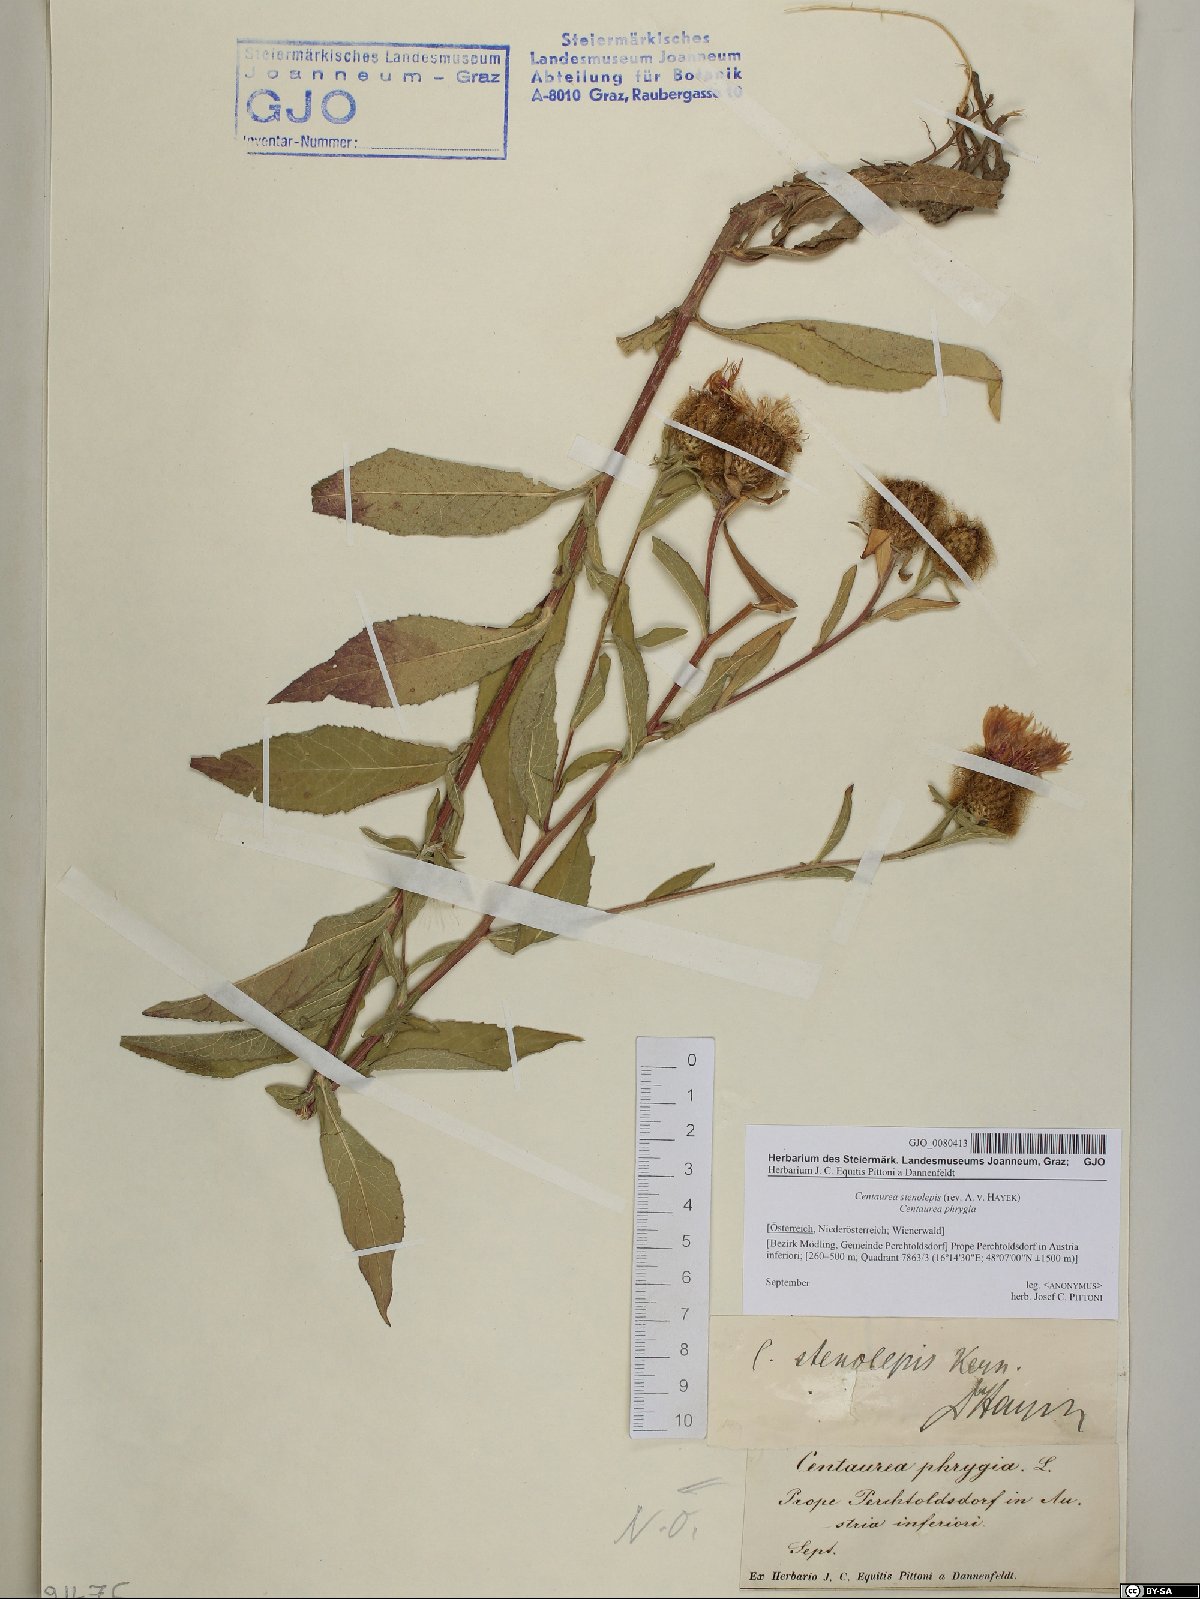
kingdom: Plantae
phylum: Tracheophyta
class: Magnoliopsida
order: Asterales
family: Asteraceae
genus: Centaurea
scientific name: Centaurea stenolepis
